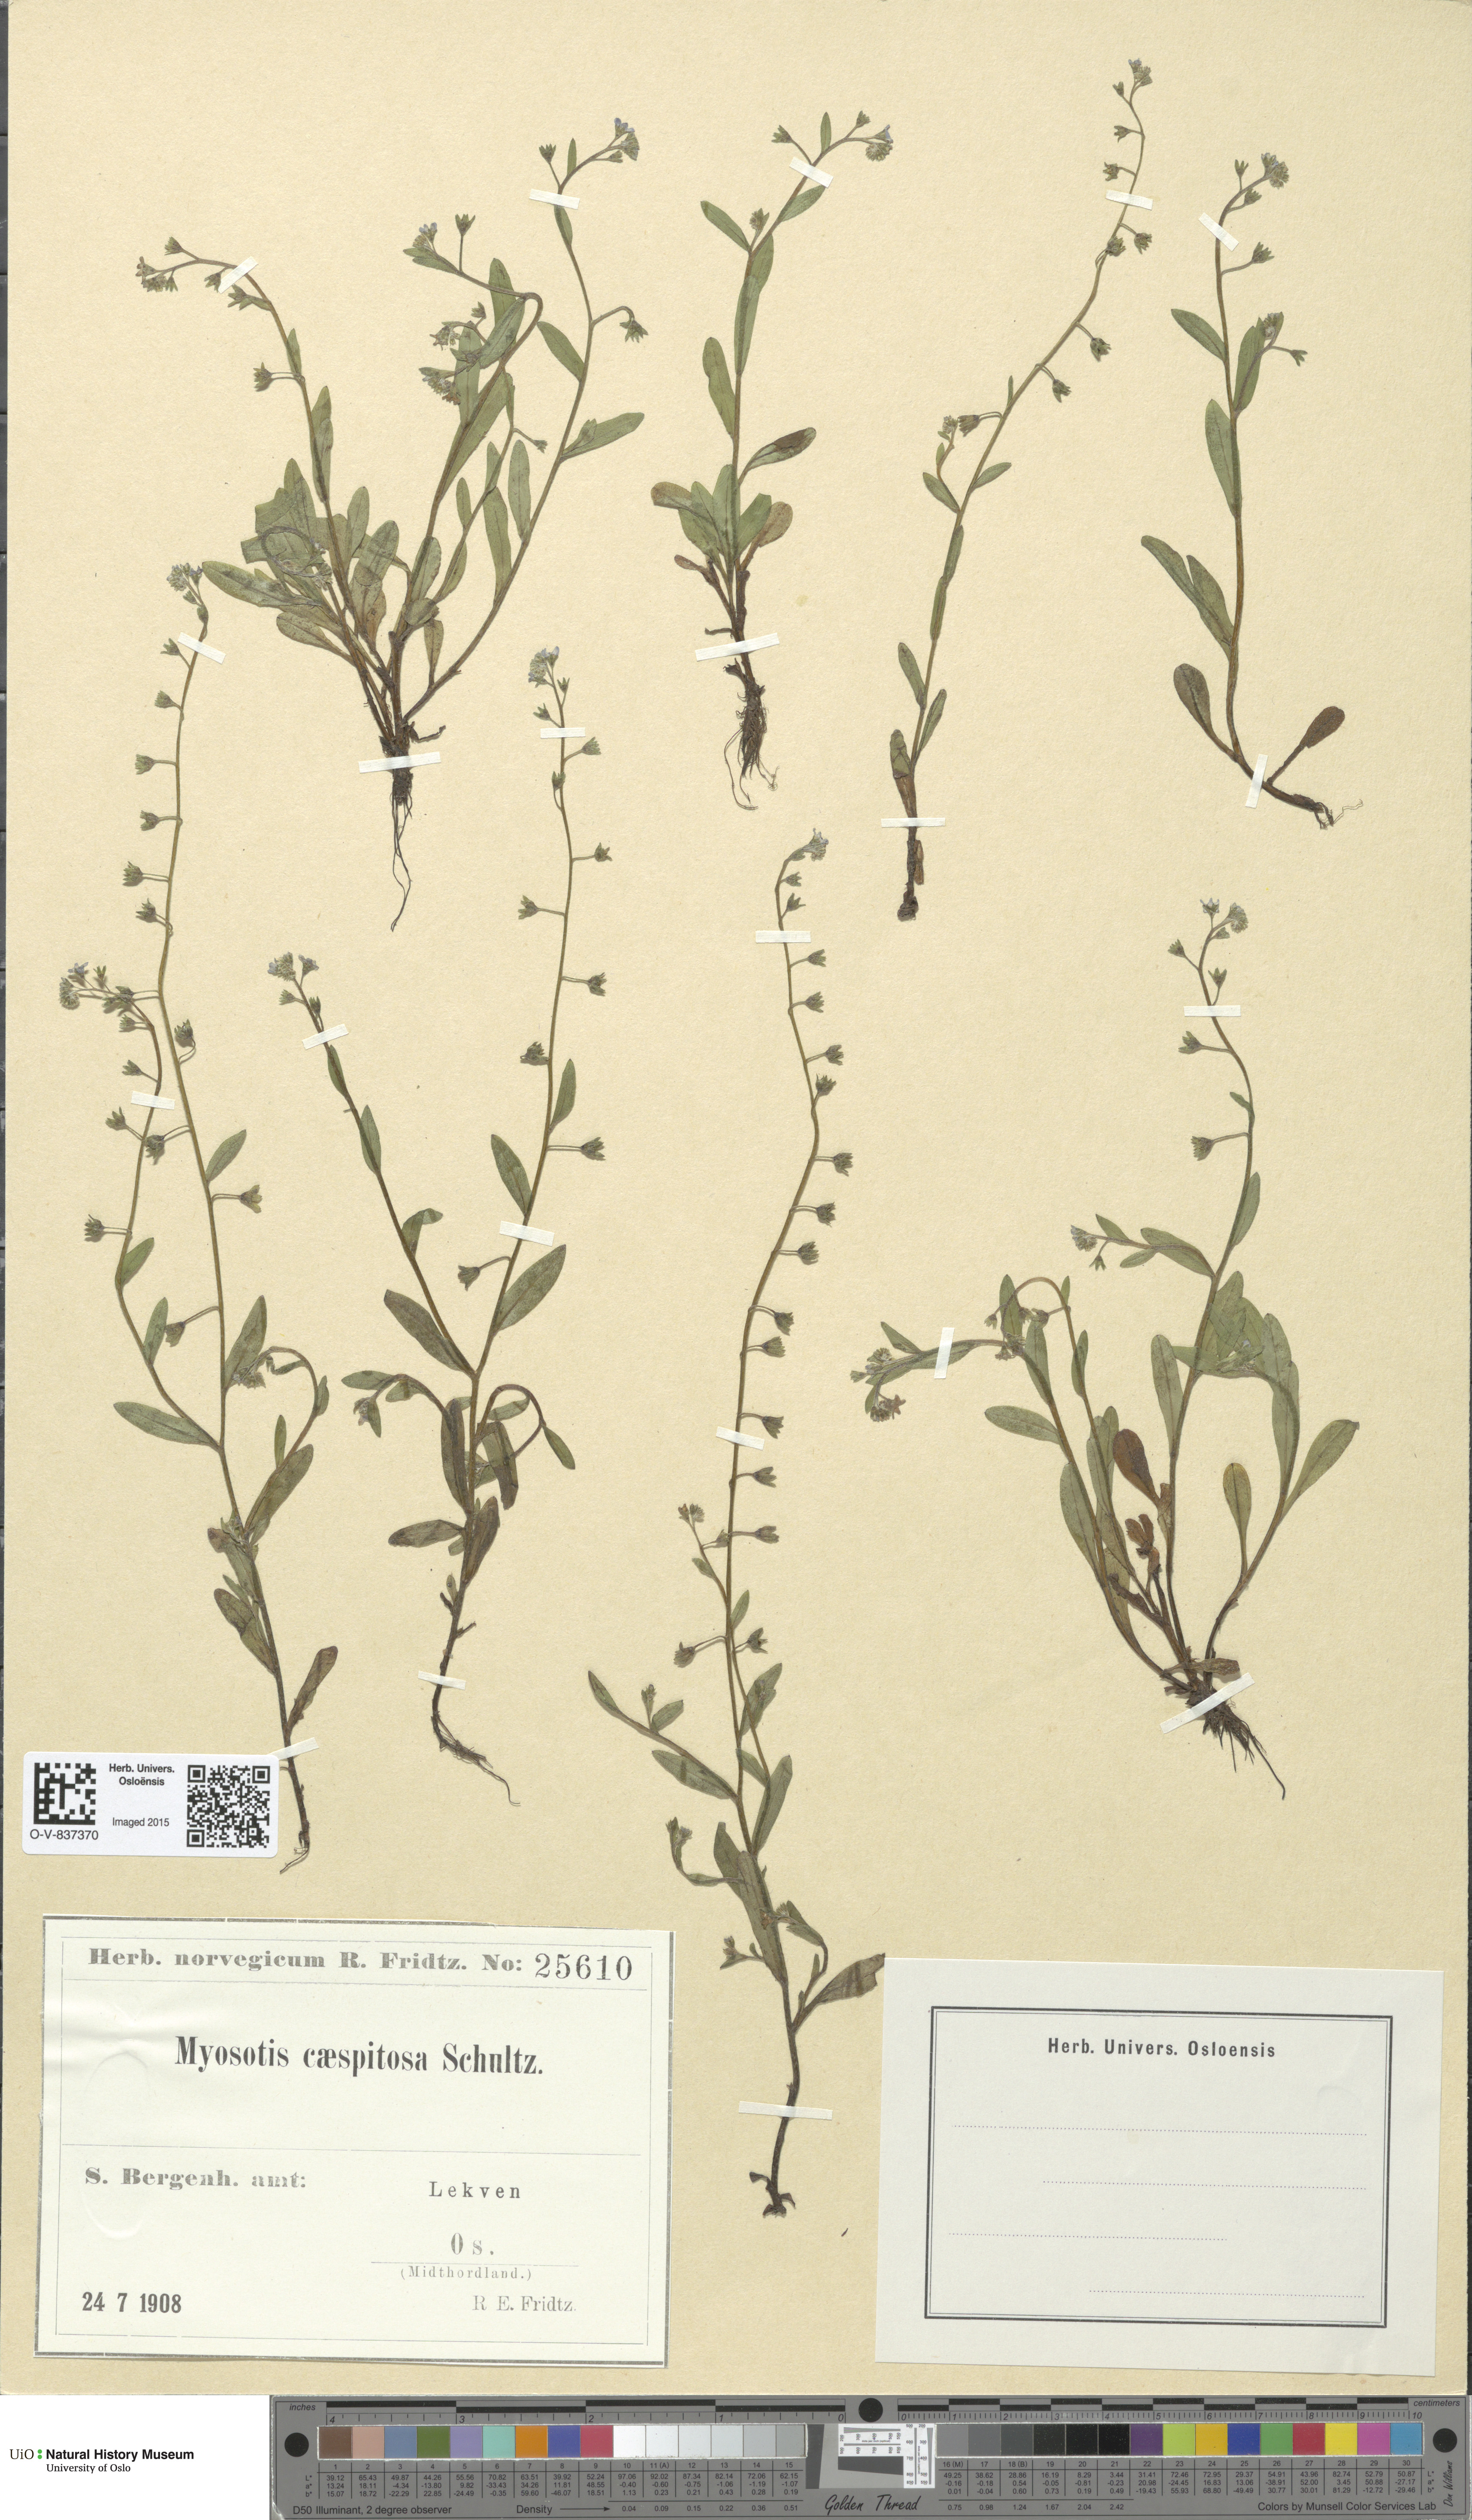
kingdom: Plantae
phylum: Tracheophyta
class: Magnoliopsida
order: Boraginales
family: Boraginaceae
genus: Myosotis
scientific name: Myosotis laxa
